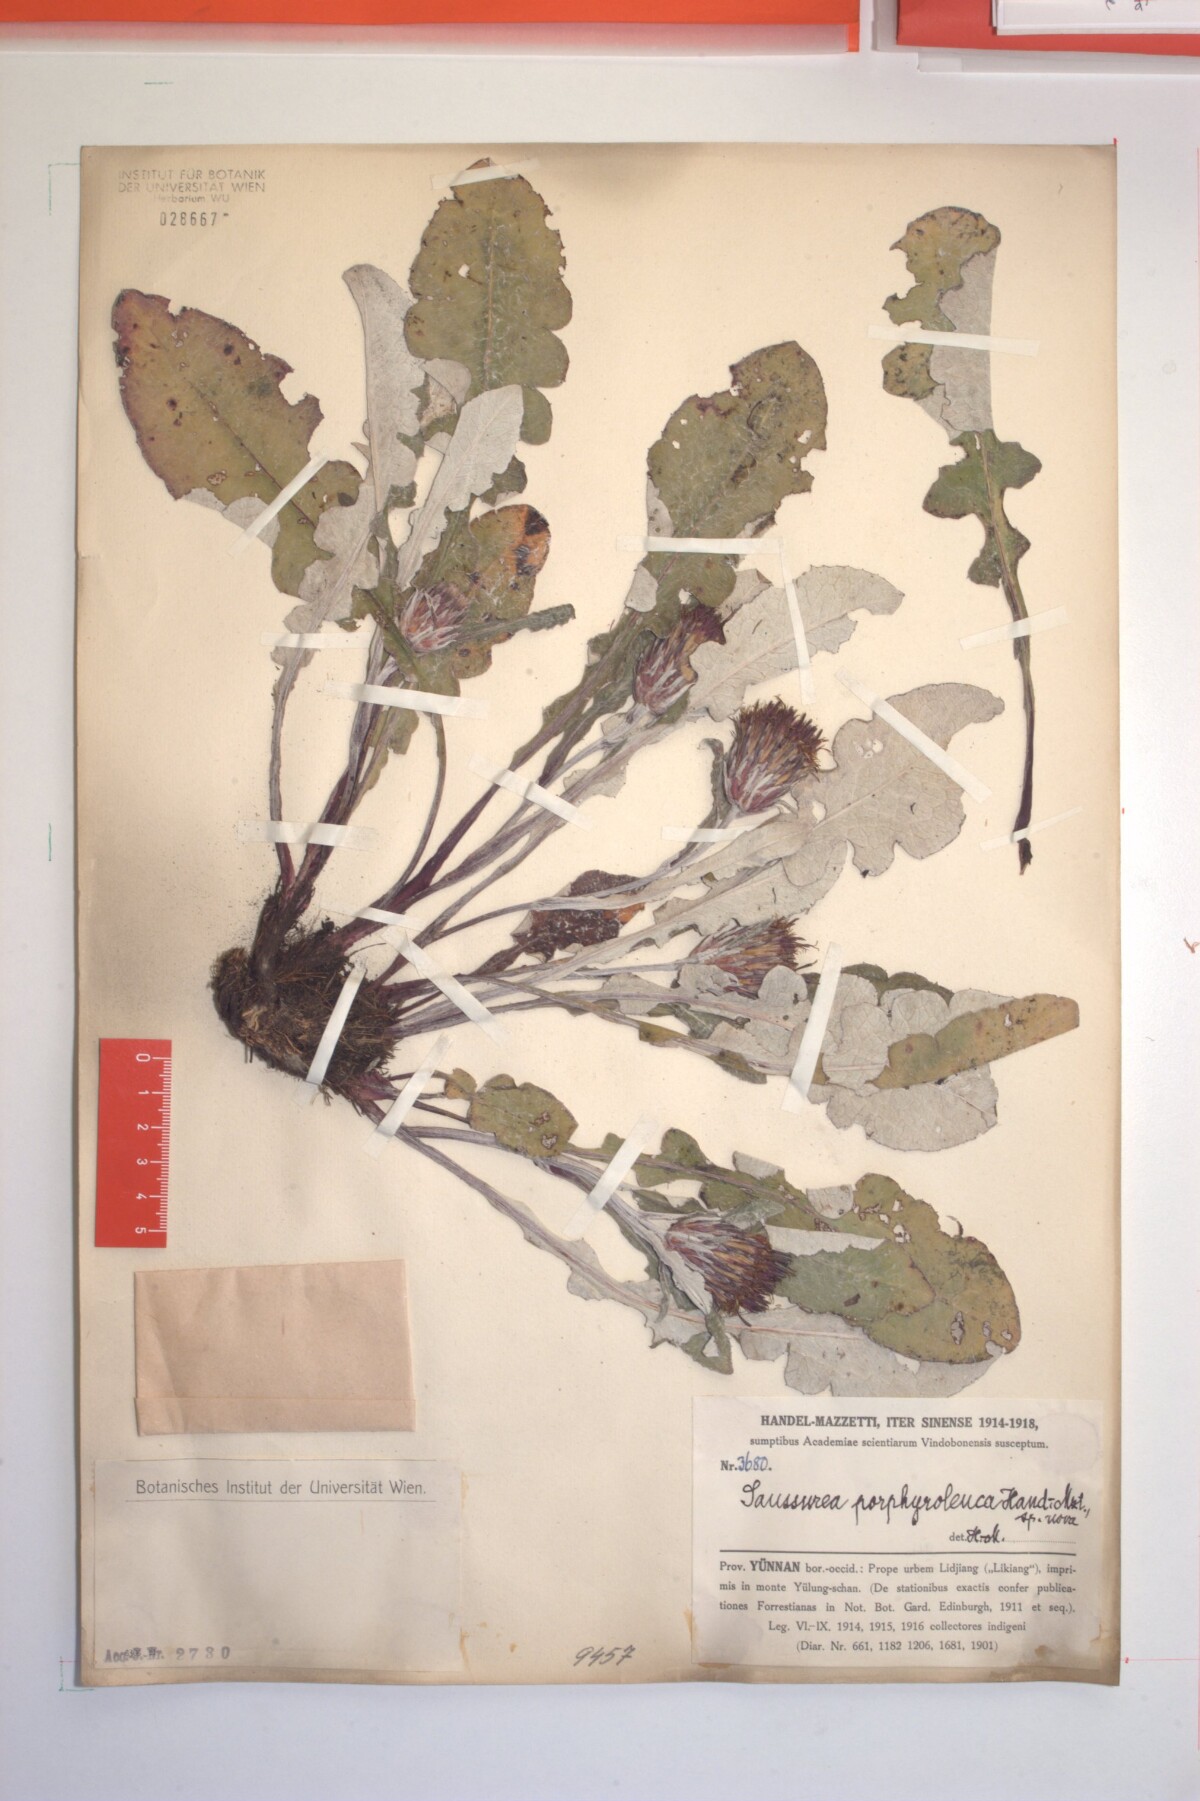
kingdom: Plantae
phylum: Tracheophyta
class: Magnoliopsida
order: Asterales
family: Asteraceae
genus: Saussurea
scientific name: Saussurea porphyroleuca
